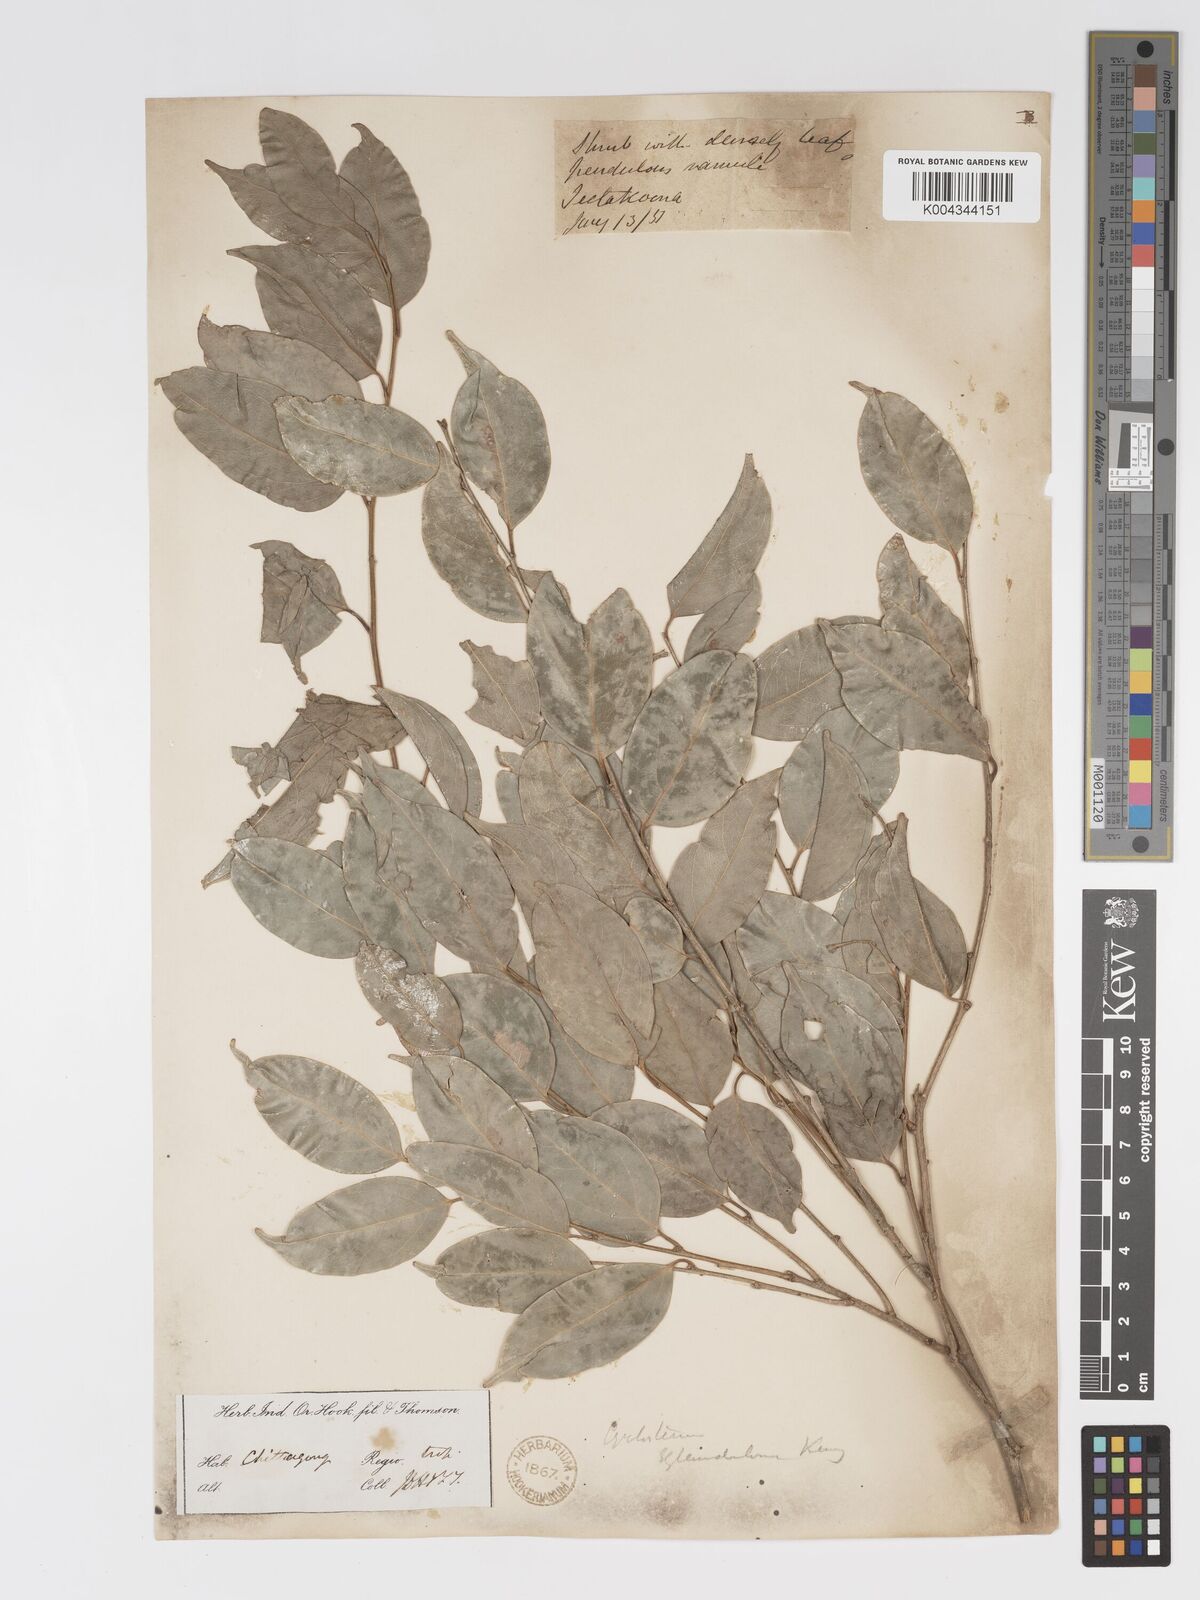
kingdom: Plantae
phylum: Tracheophyta
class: Magnoliopsida
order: Malpighiales
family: Putranjivaceae
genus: Drypetes
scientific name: Drypetes eglandulosa
